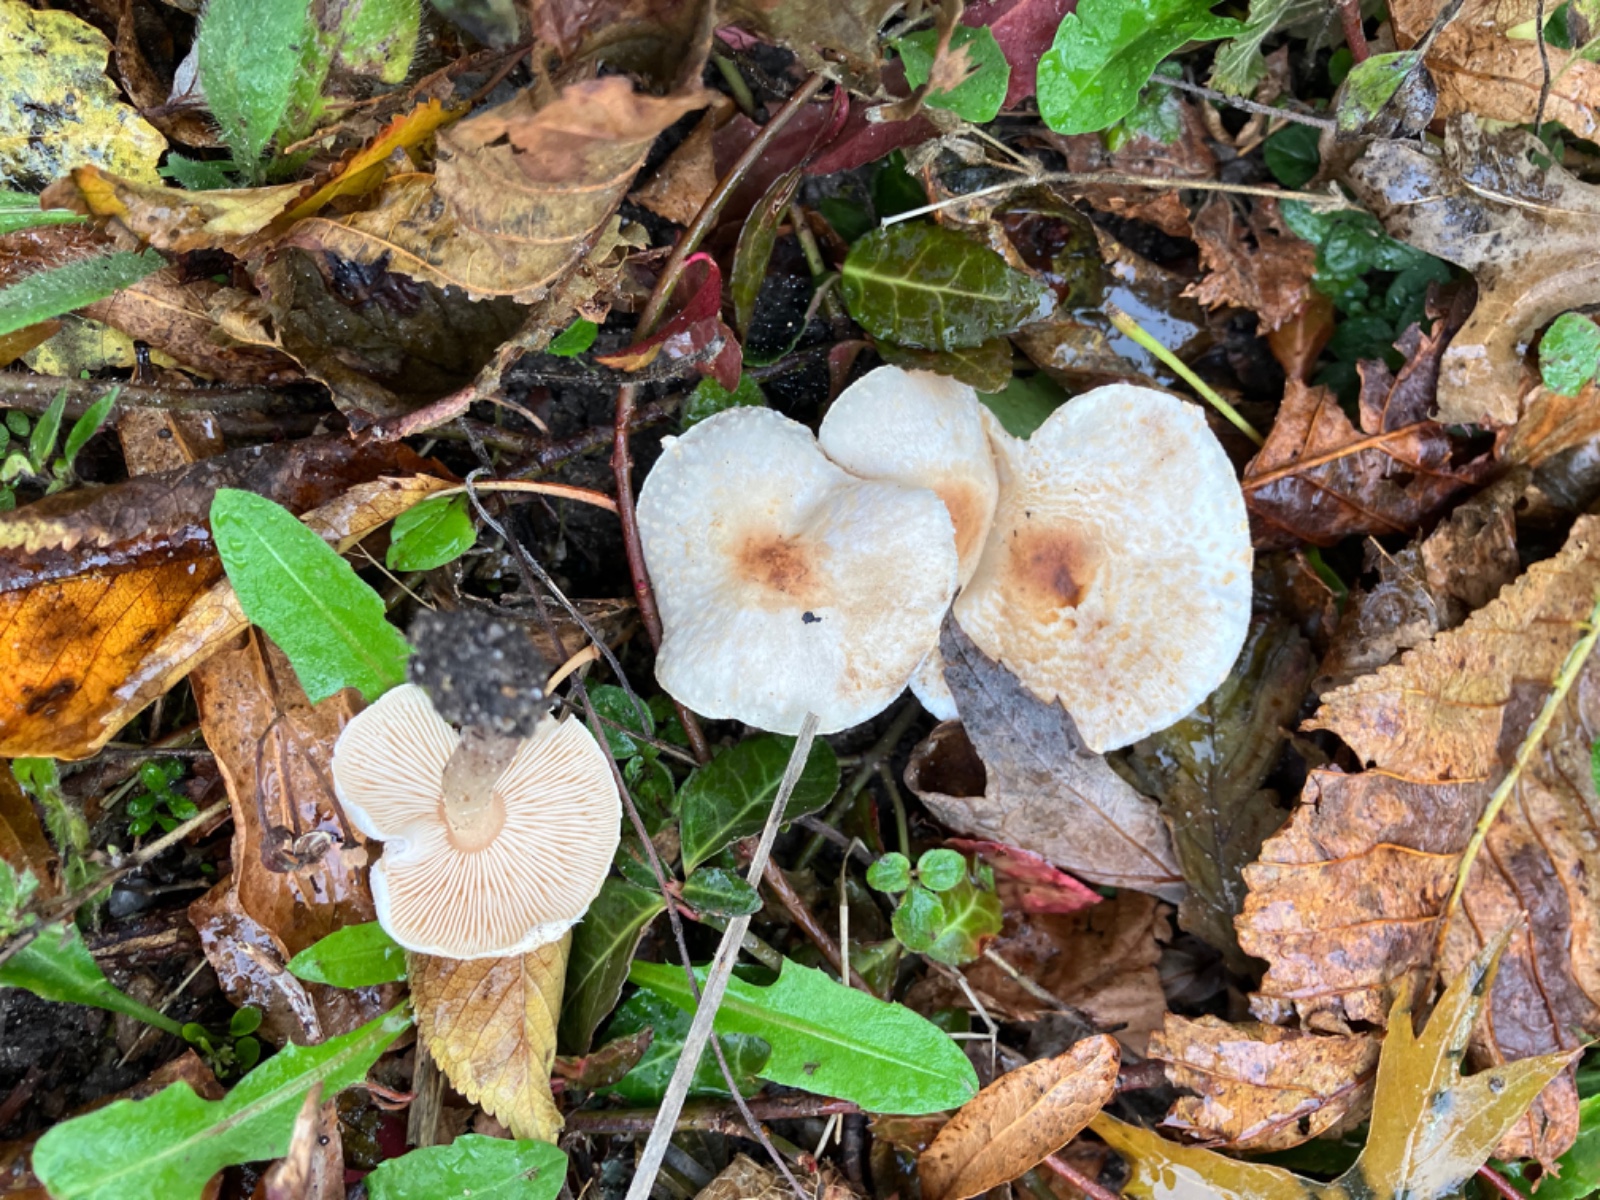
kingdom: Fungi
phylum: Basidiomycota
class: Agaricomycetes
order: Agaricales
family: Agaricaceae
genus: Lepiota
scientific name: Lepiota cristata
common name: stinkende parasolhat
